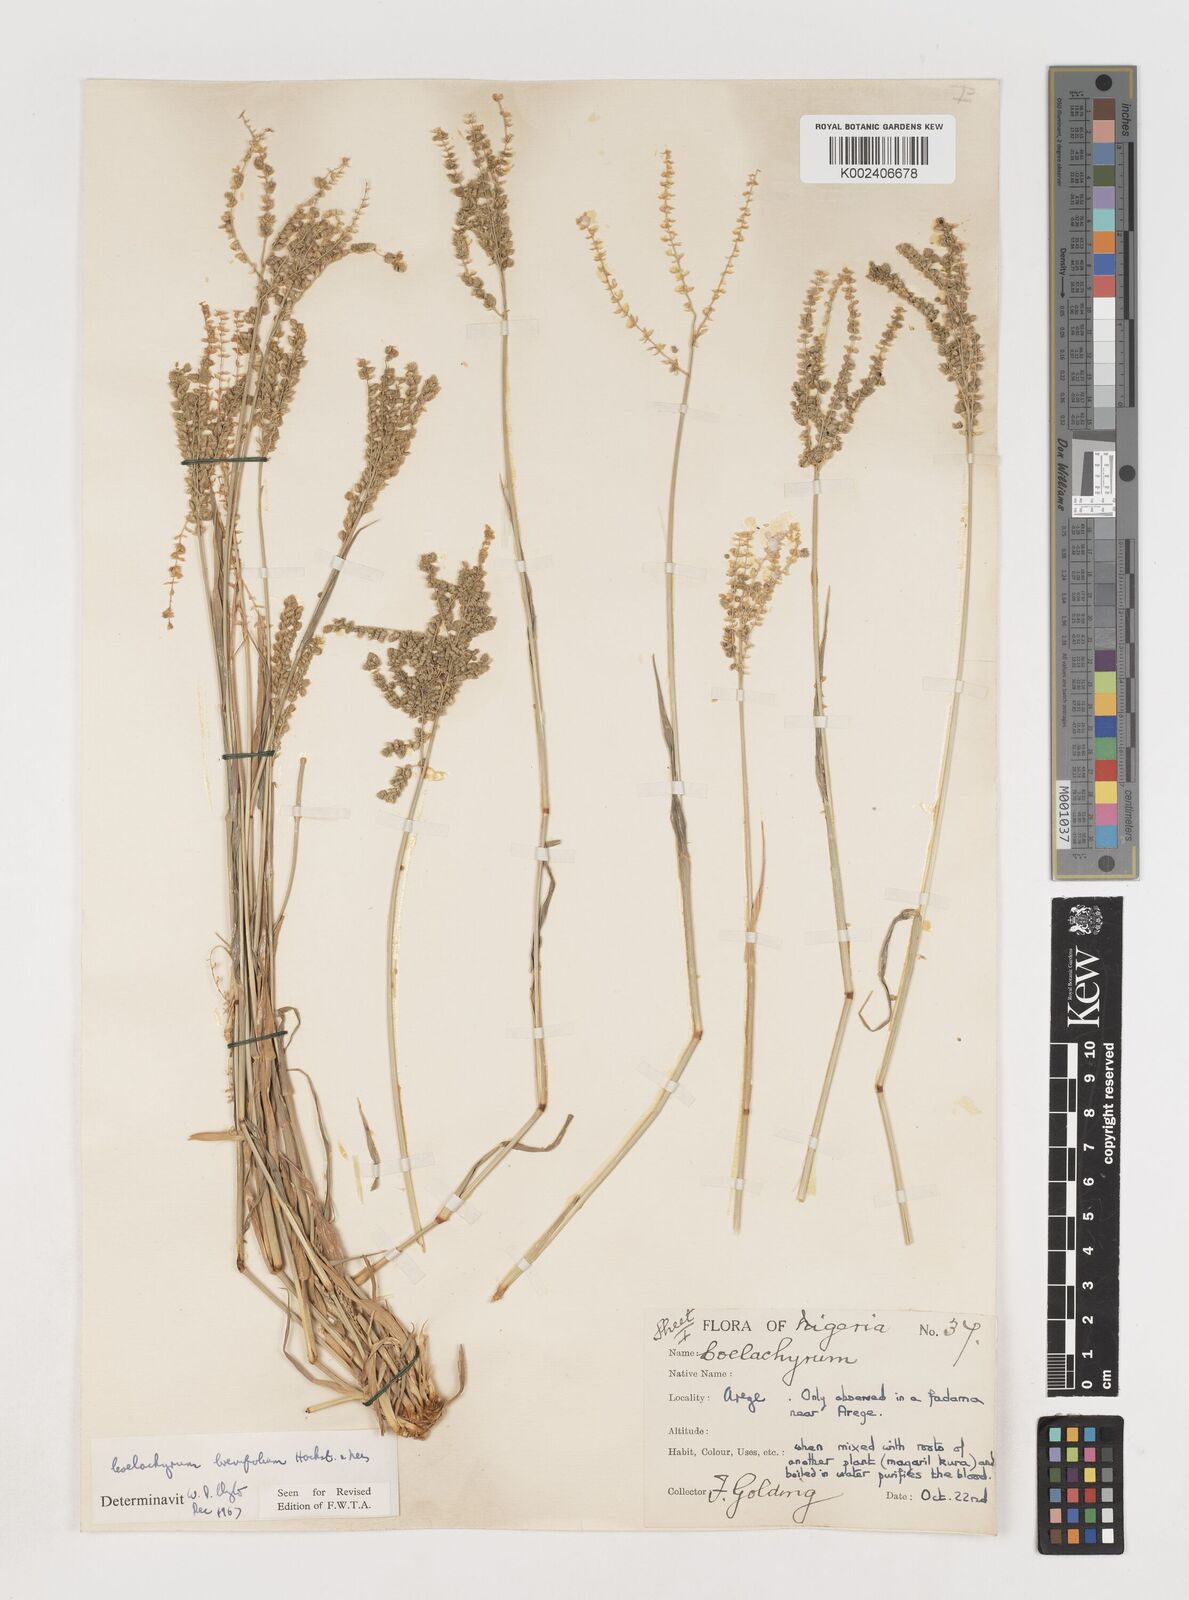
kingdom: Plantae
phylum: Tracheophyta
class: Liliopsida
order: Poales
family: Poaceae
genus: Coelachyrum
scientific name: Coelachyrum brevifolium
